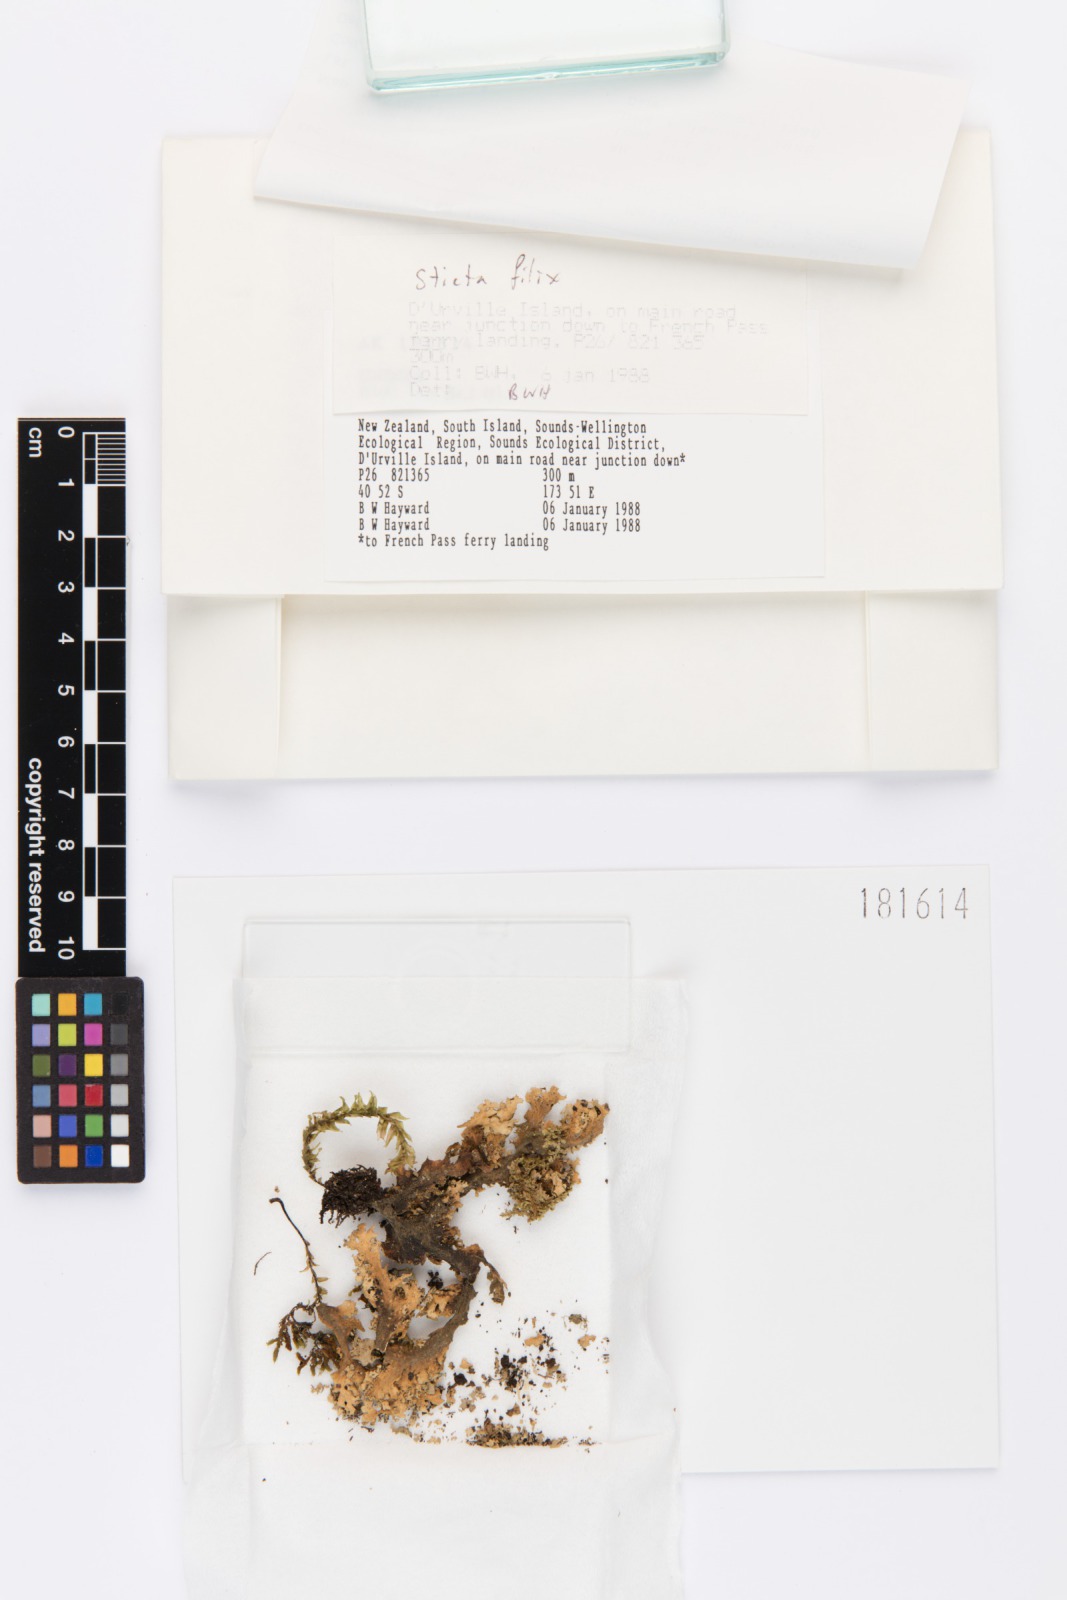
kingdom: Fungi
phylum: Ascomycota
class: Lecanoromycetes
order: Peltigerales
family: Lobariaceae
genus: Sticta
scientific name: Sticta filix
